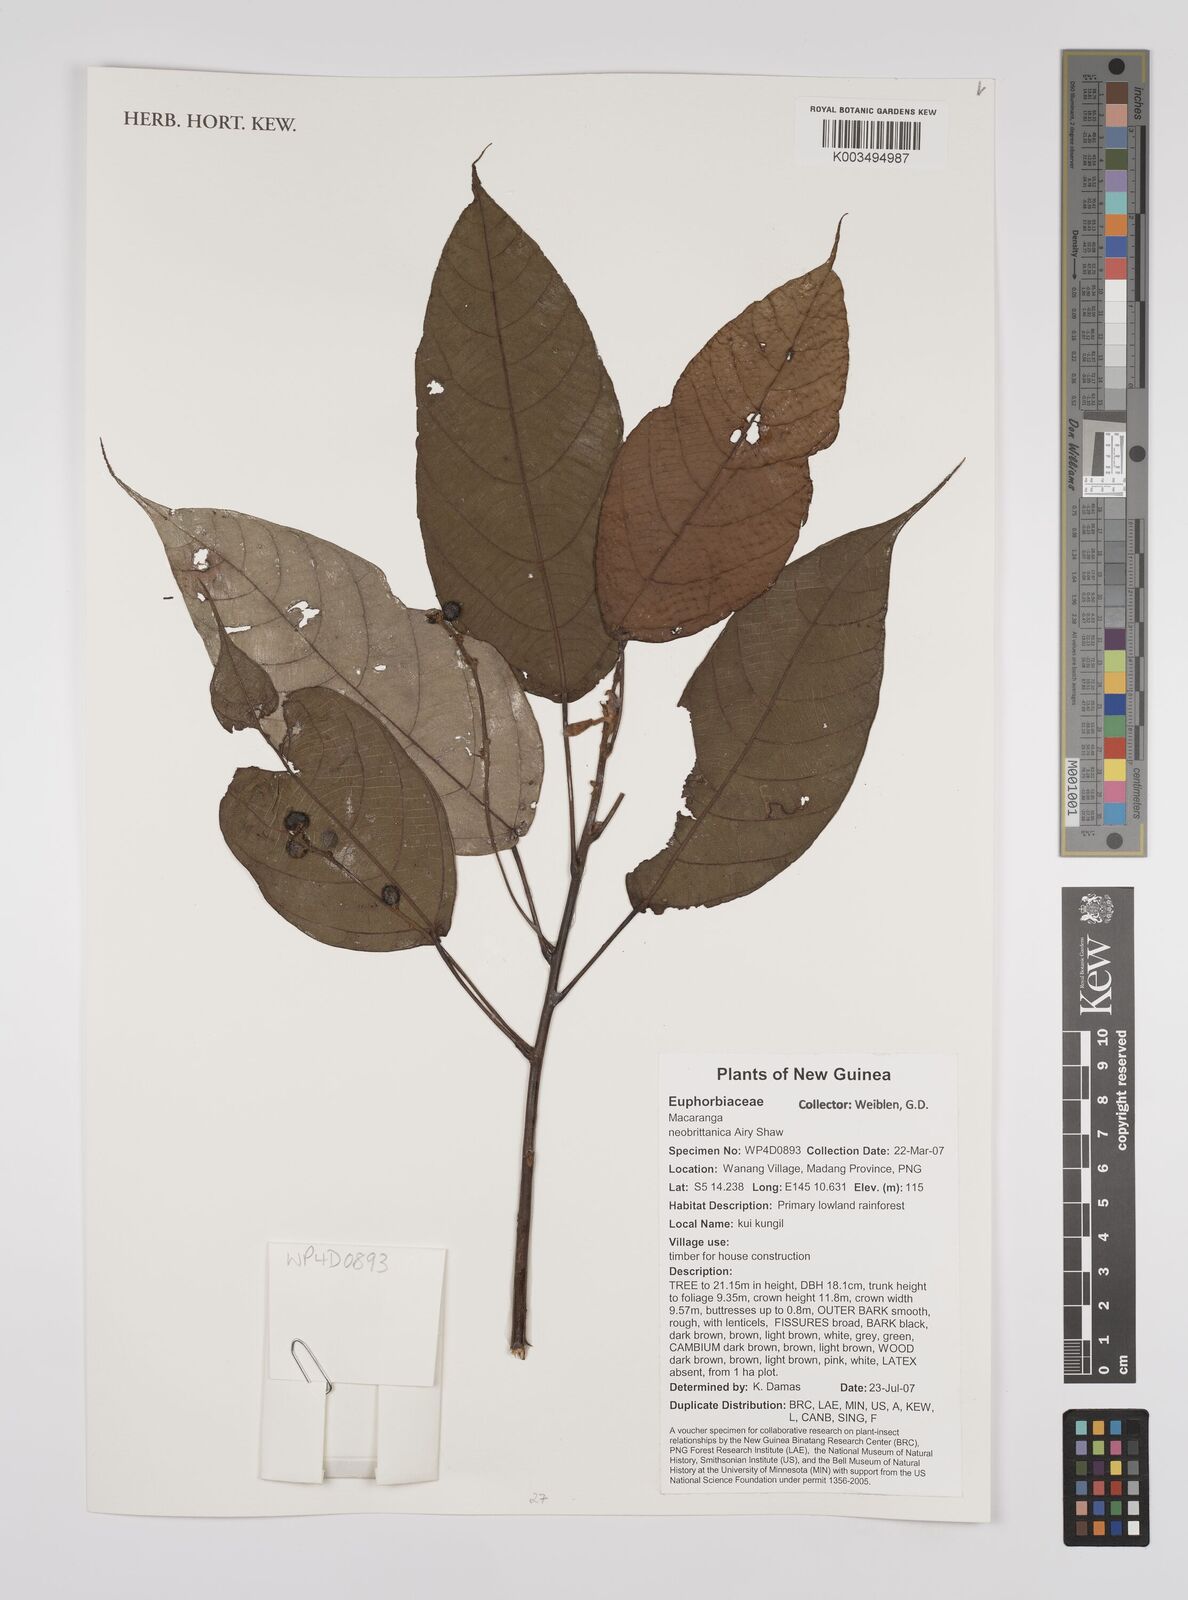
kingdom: Plantae
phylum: Tracheophyta
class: Magnoliopsida
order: Malpighiales
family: Euphorbiaceae
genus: Macaranga
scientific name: Macaranga neobritannica
